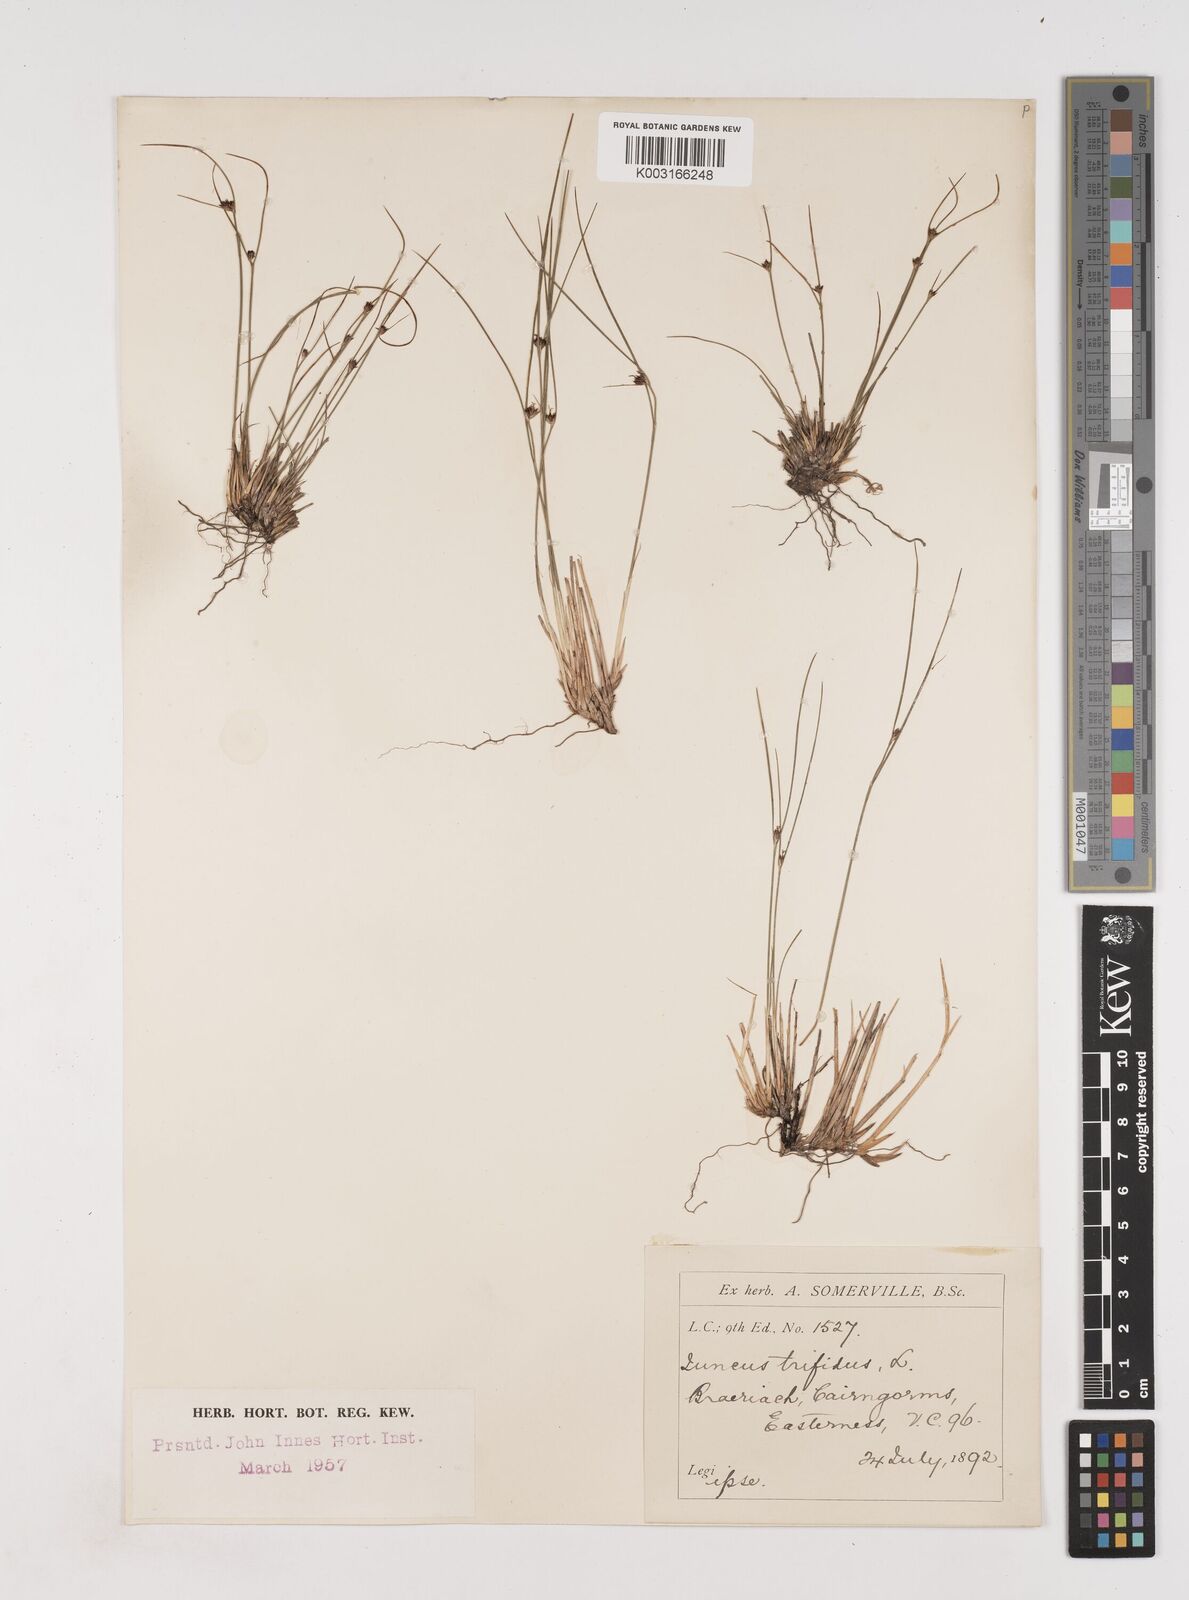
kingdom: Plantae
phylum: Tracheophyta
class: Liliopsida
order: Poales
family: Juncaceae
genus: Oreojuncus
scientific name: Oreojuncus trifidus
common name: Highland rush
